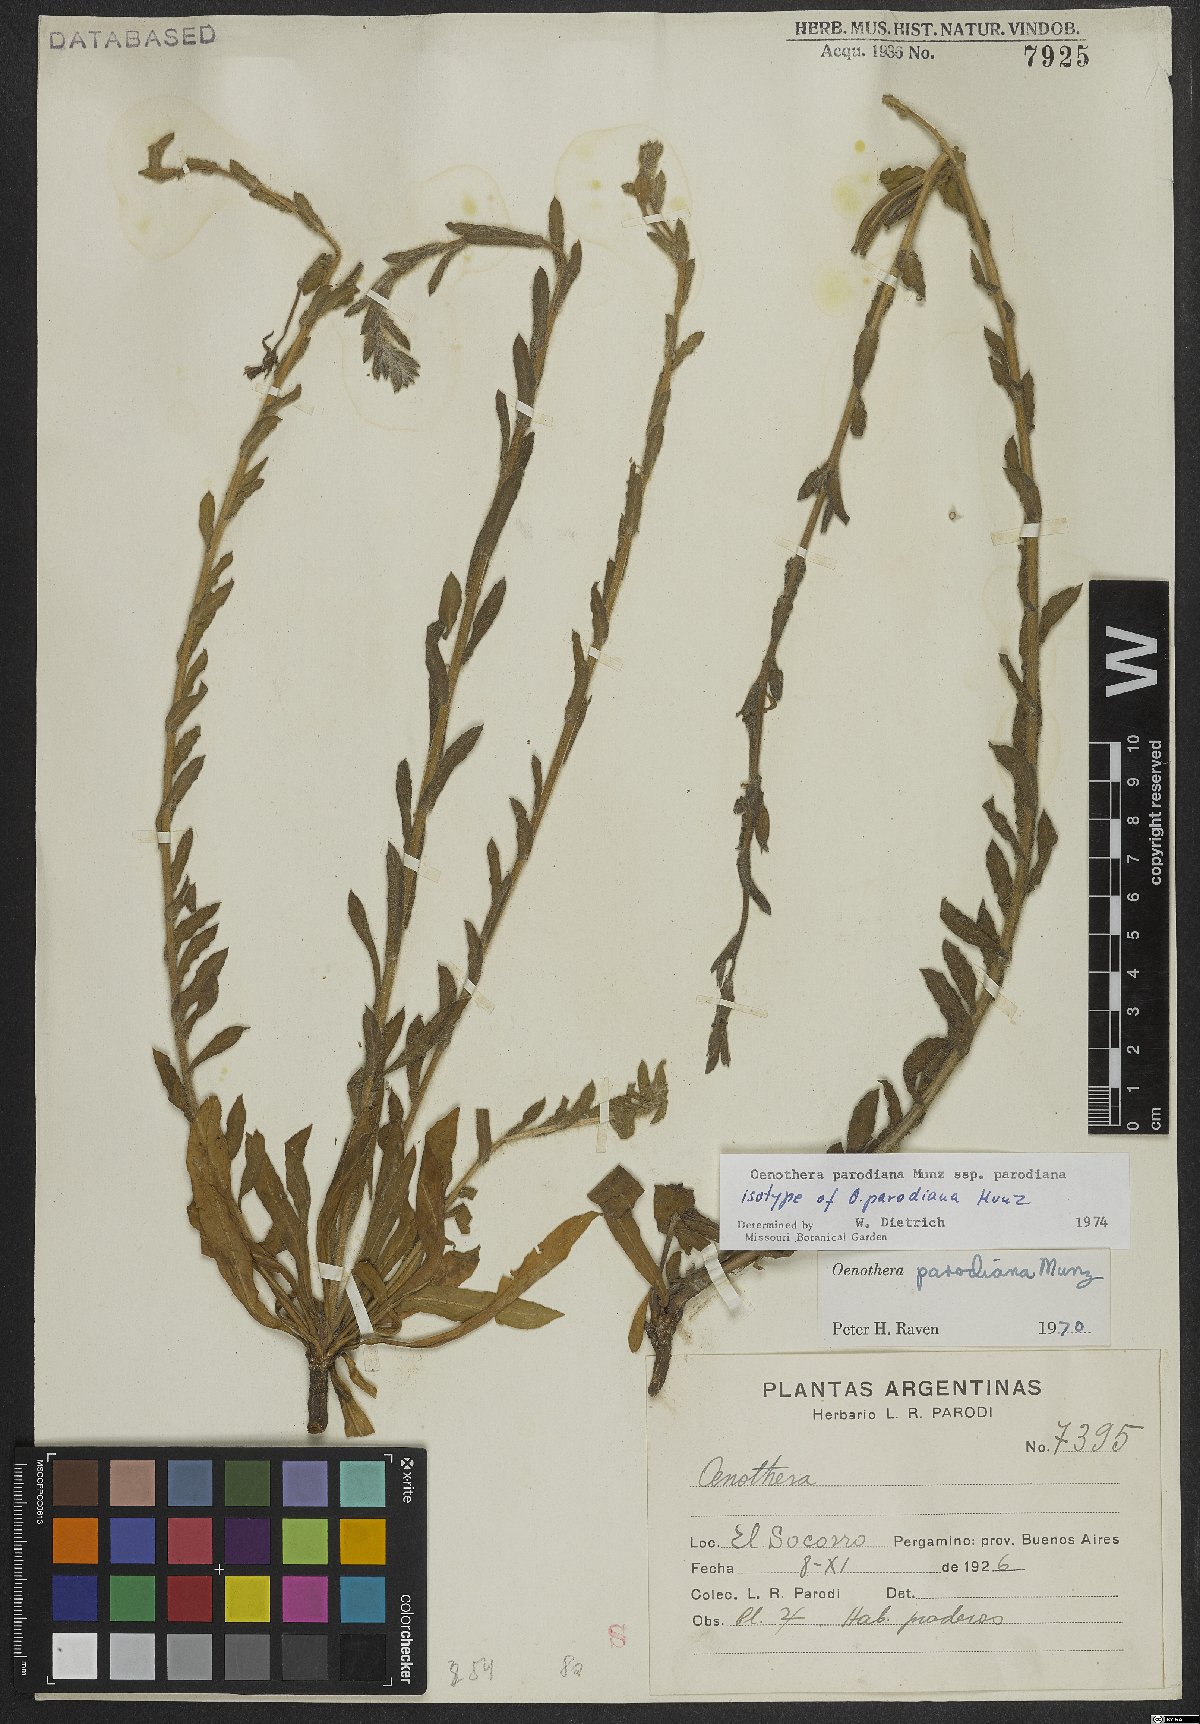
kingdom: Plantae
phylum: Tracheophyta
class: Magnoliopsida
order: Myrtales
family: Onagraceae
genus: Oenothera
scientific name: Oenothera parodiana
